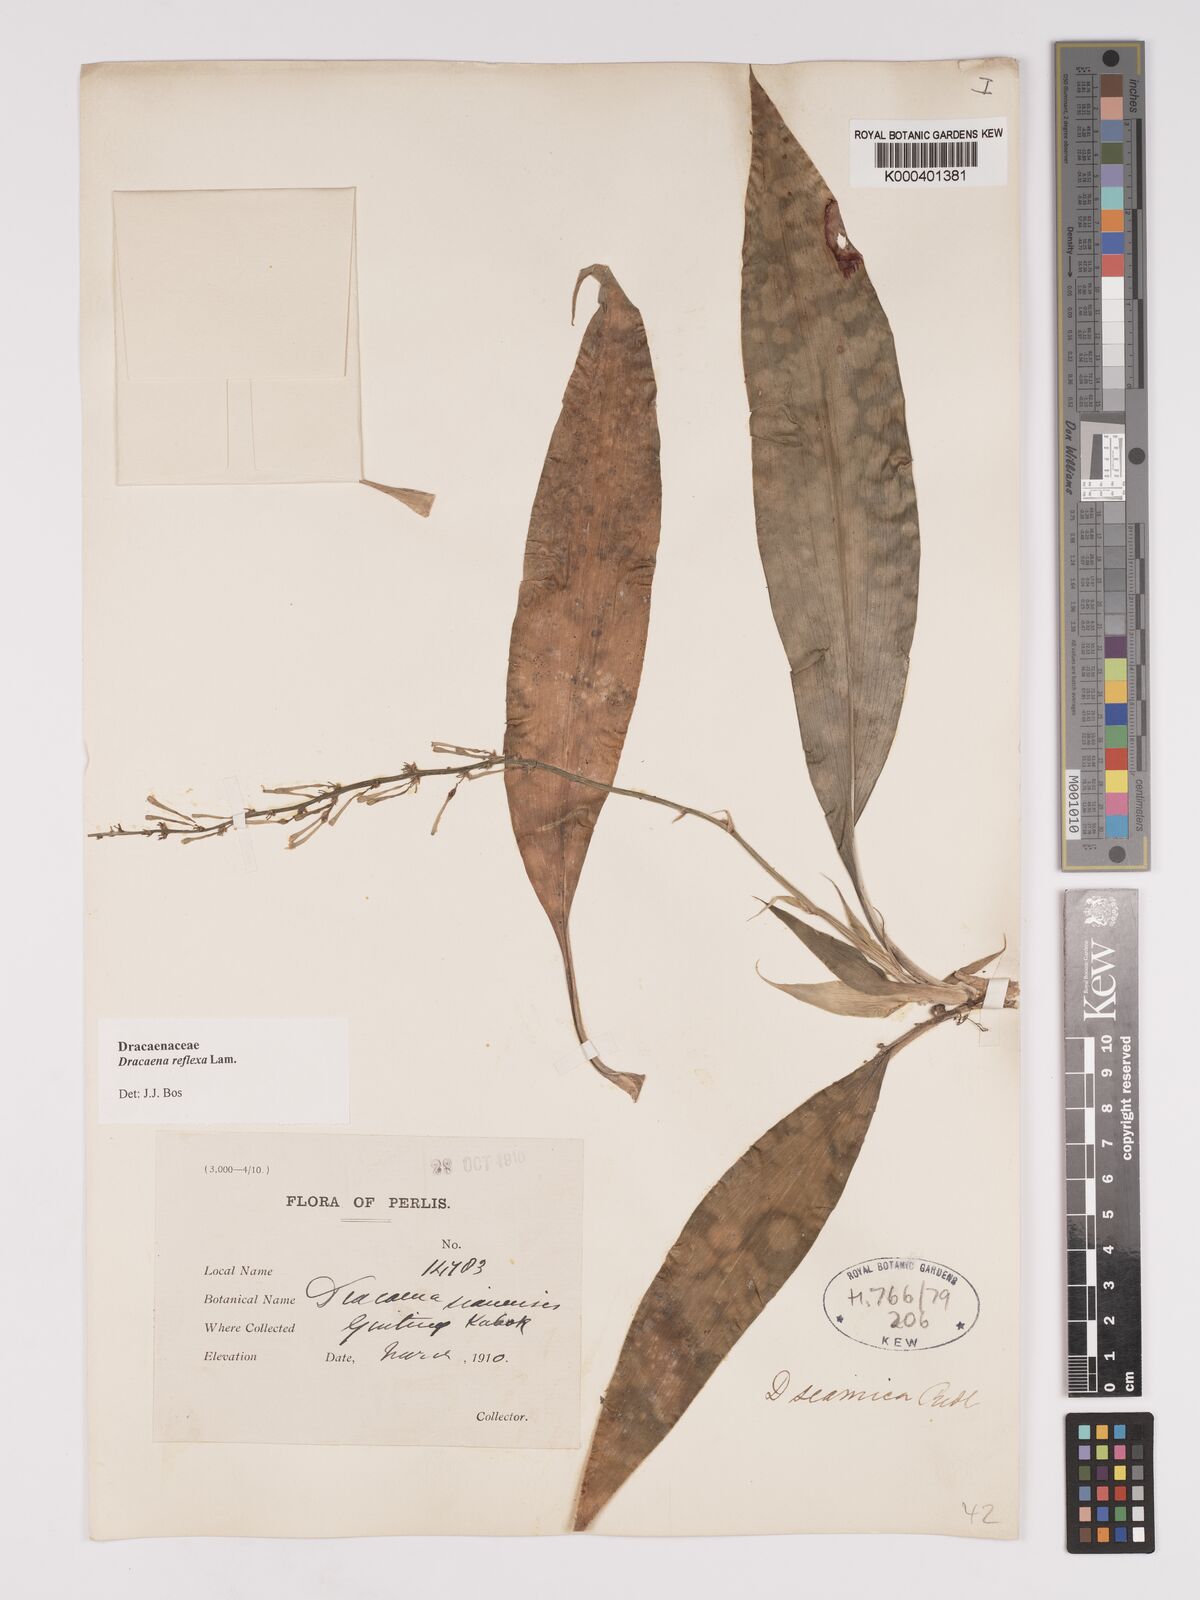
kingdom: Plantae
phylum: Tracheophyta
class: Liliopsida
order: Asparagales
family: Asparagaceae
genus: Dracaena
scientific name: Dracaena reflexa
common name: Song-of-india
